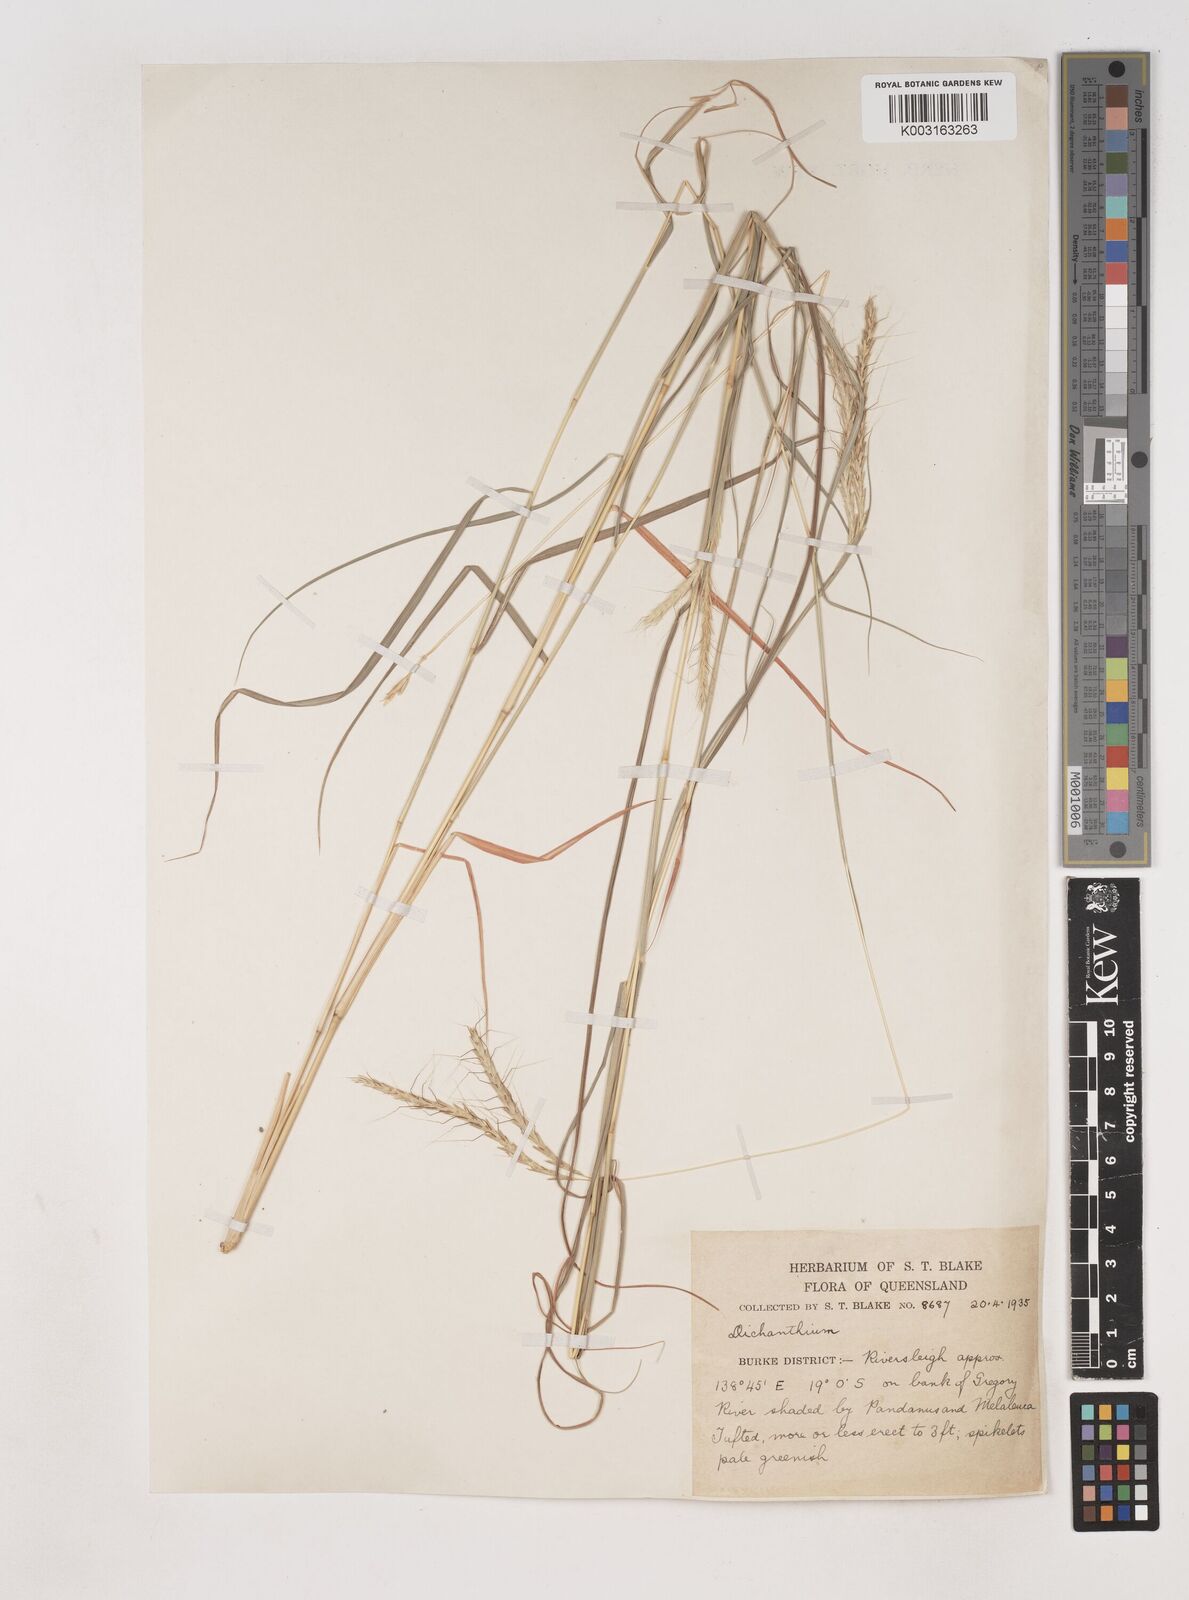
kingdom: Plantae
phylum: Tracheophyta
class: Liliopsida
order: Poales
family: Poaceae
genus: Dichanthium
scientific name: Dichanthium fecundum
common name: Bundle-bundle
